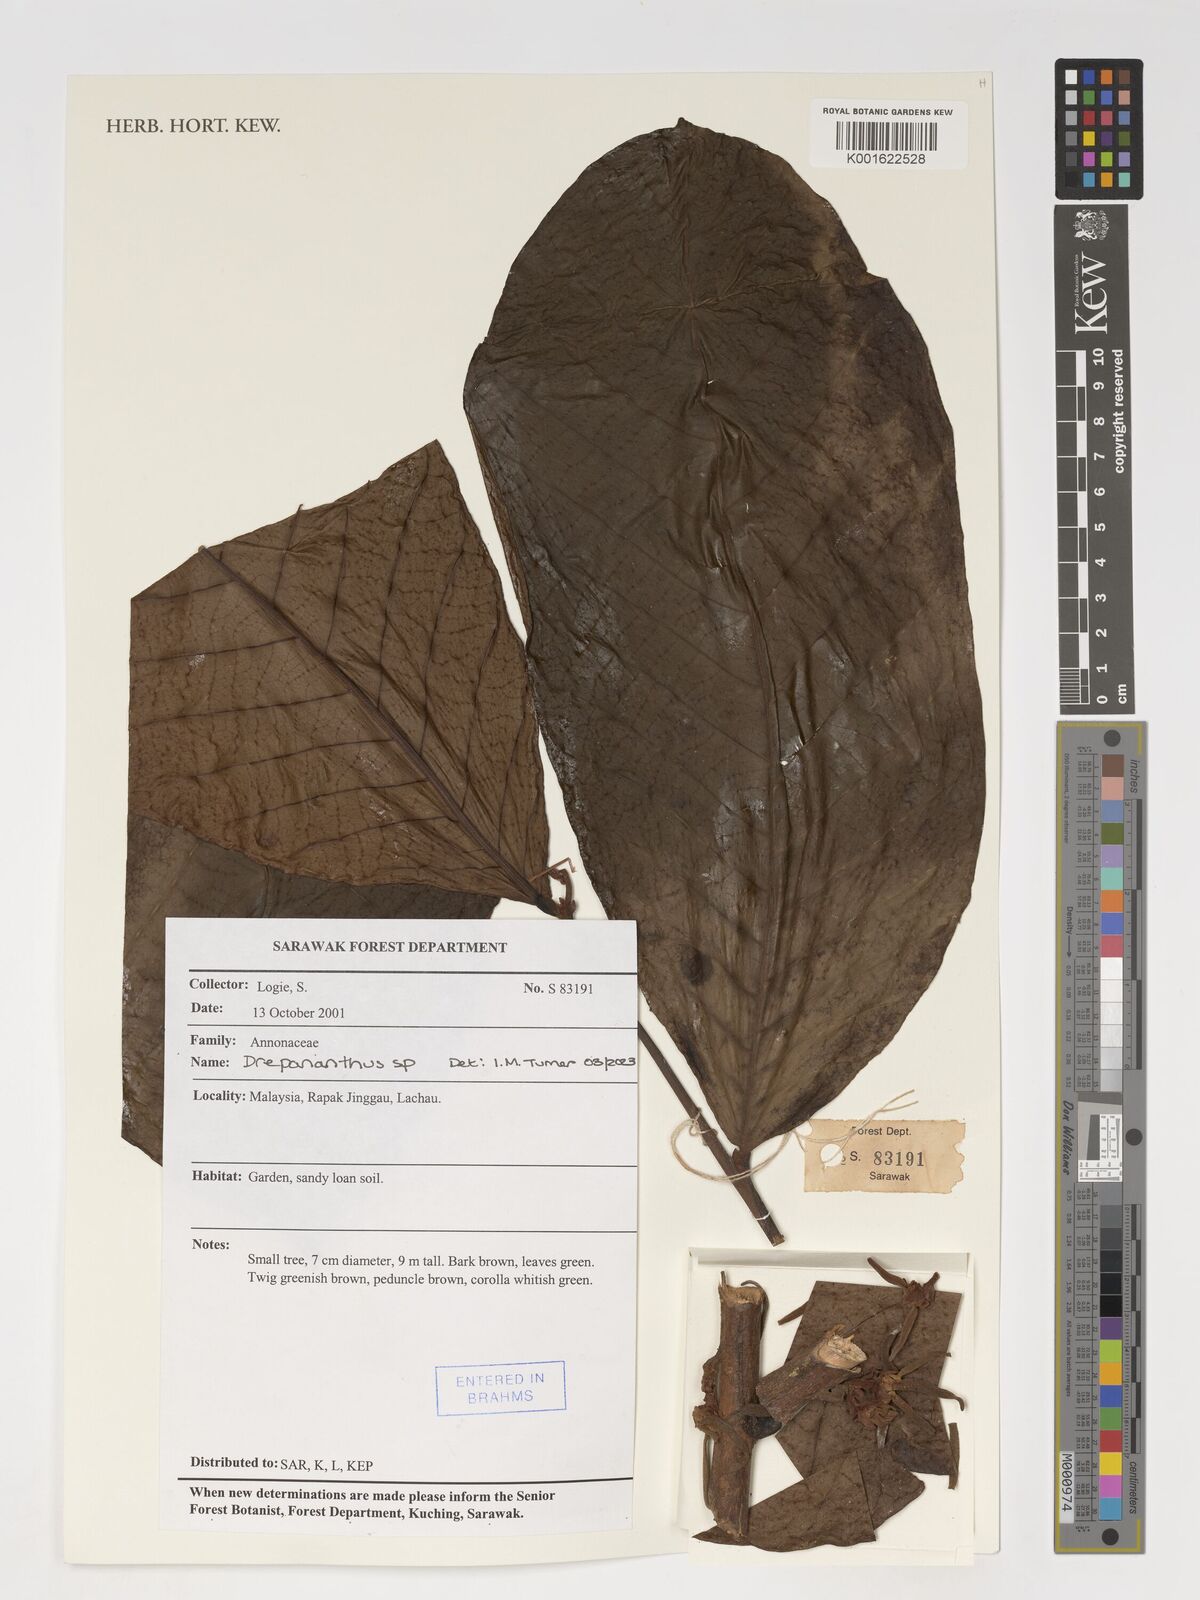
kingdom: Plantae
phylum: Tracheophyta
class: Magnoliopsida
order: Magnoliales
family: Annonaceae
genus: Drepananthus
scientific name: Drepananthus
